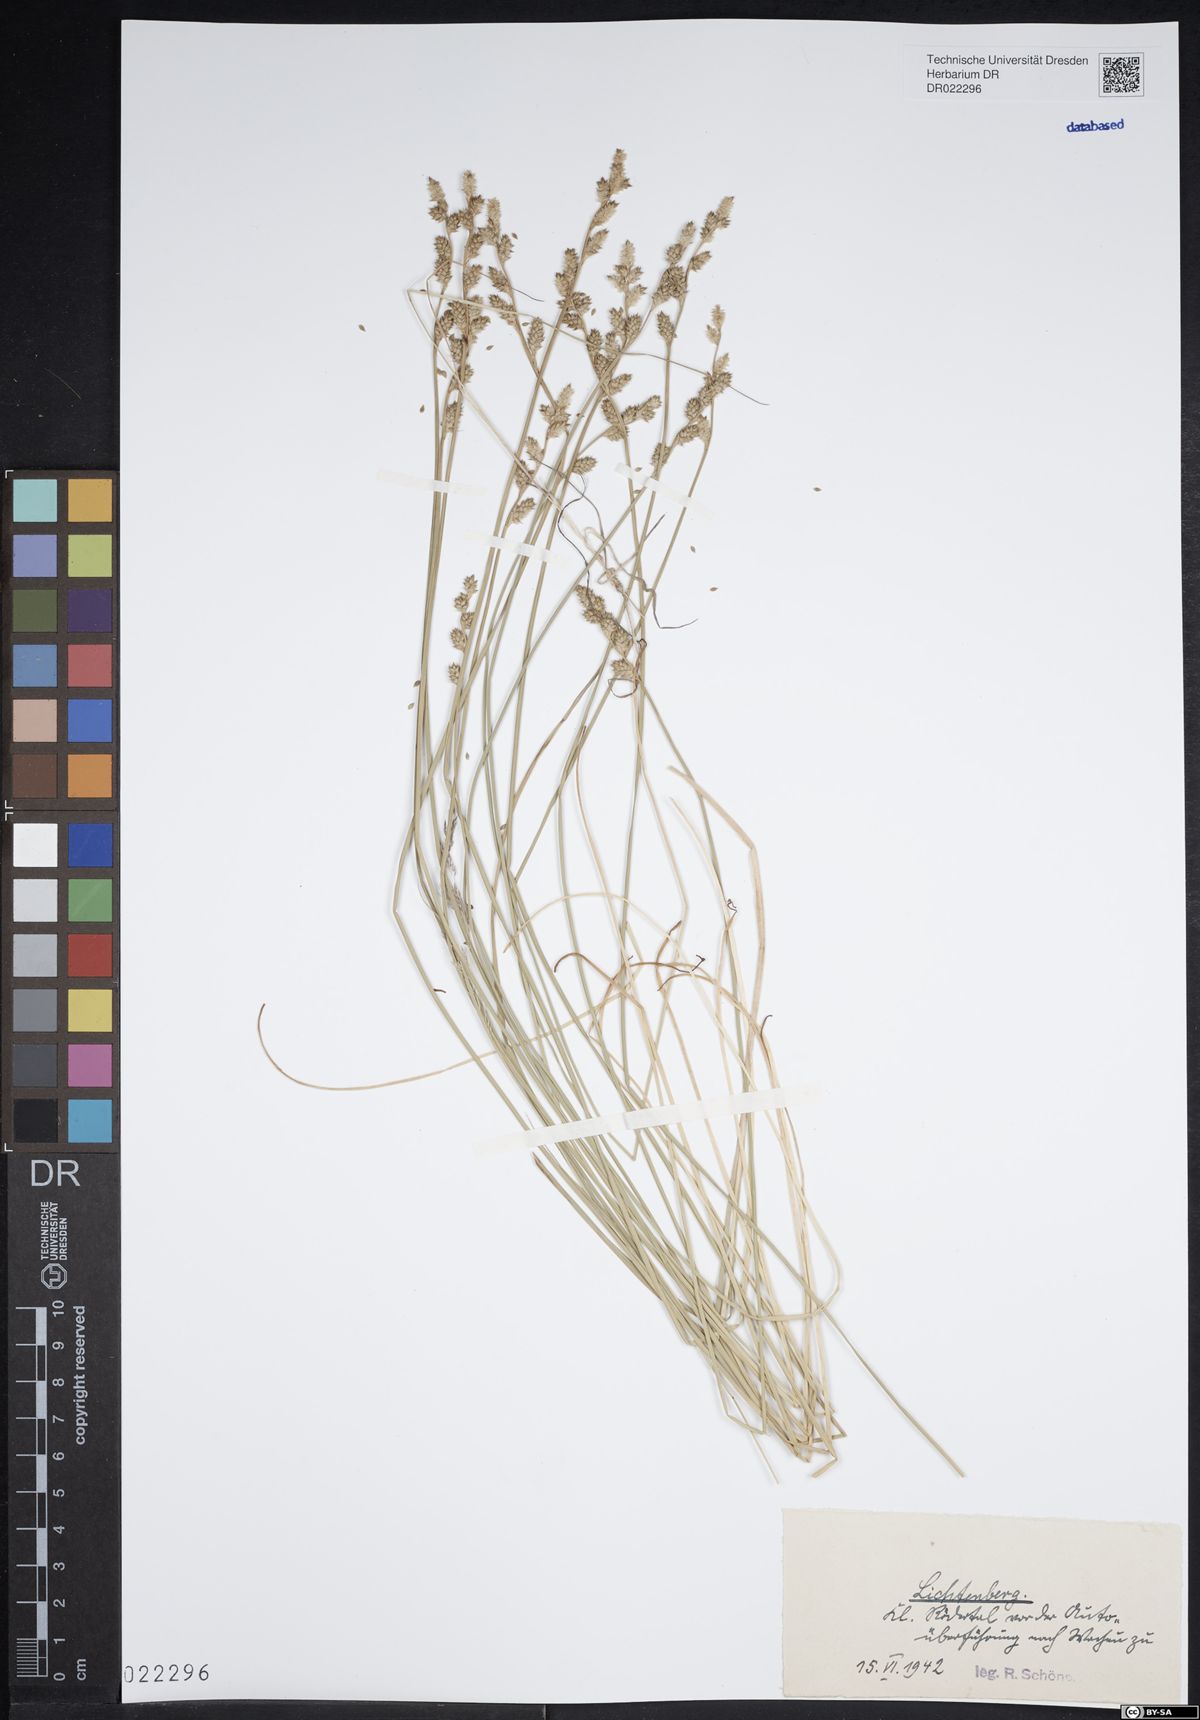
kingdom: Plantae
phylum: Tracheophyta
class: Liliopsida
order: Poales
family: Cyperaceae
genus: Carex
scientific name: Carex canescens
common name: White sedge
